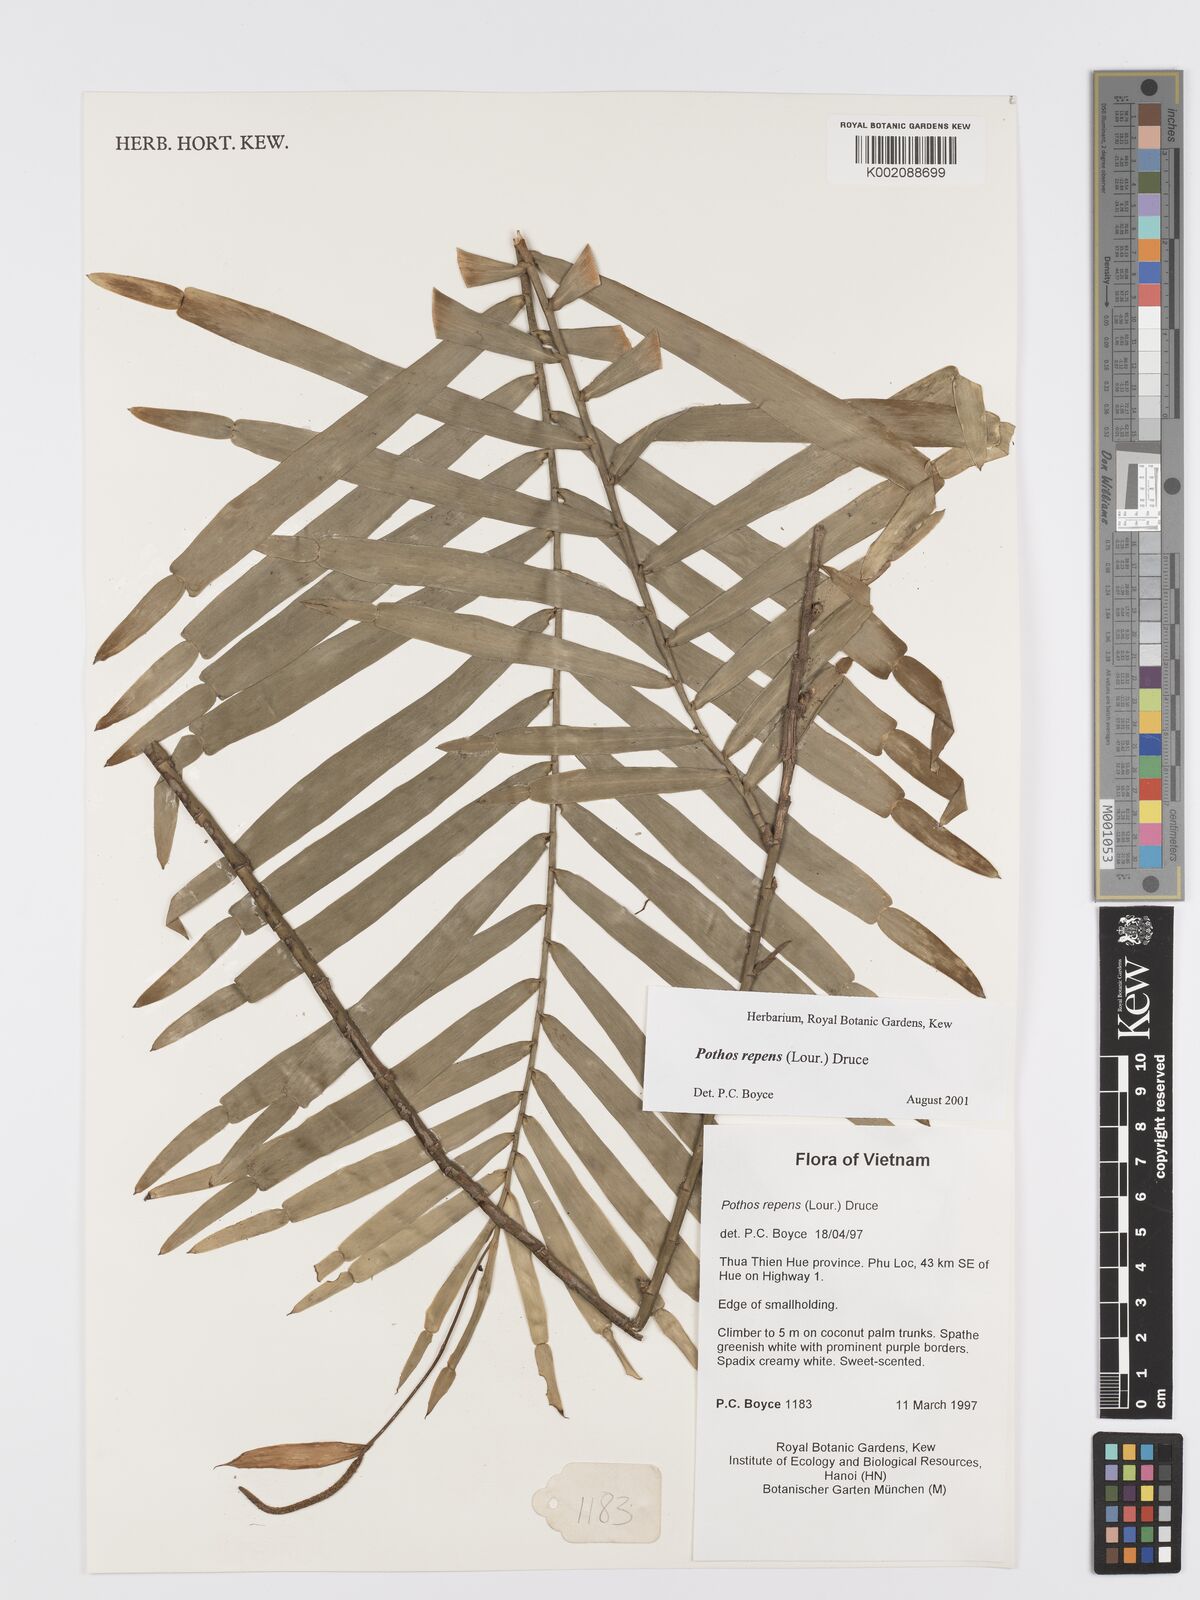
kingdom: Plantae
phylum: Tracheophyta
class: Liliopsida
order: Alismatales
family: Araceae
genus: Pothos
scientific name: Pothos repens
